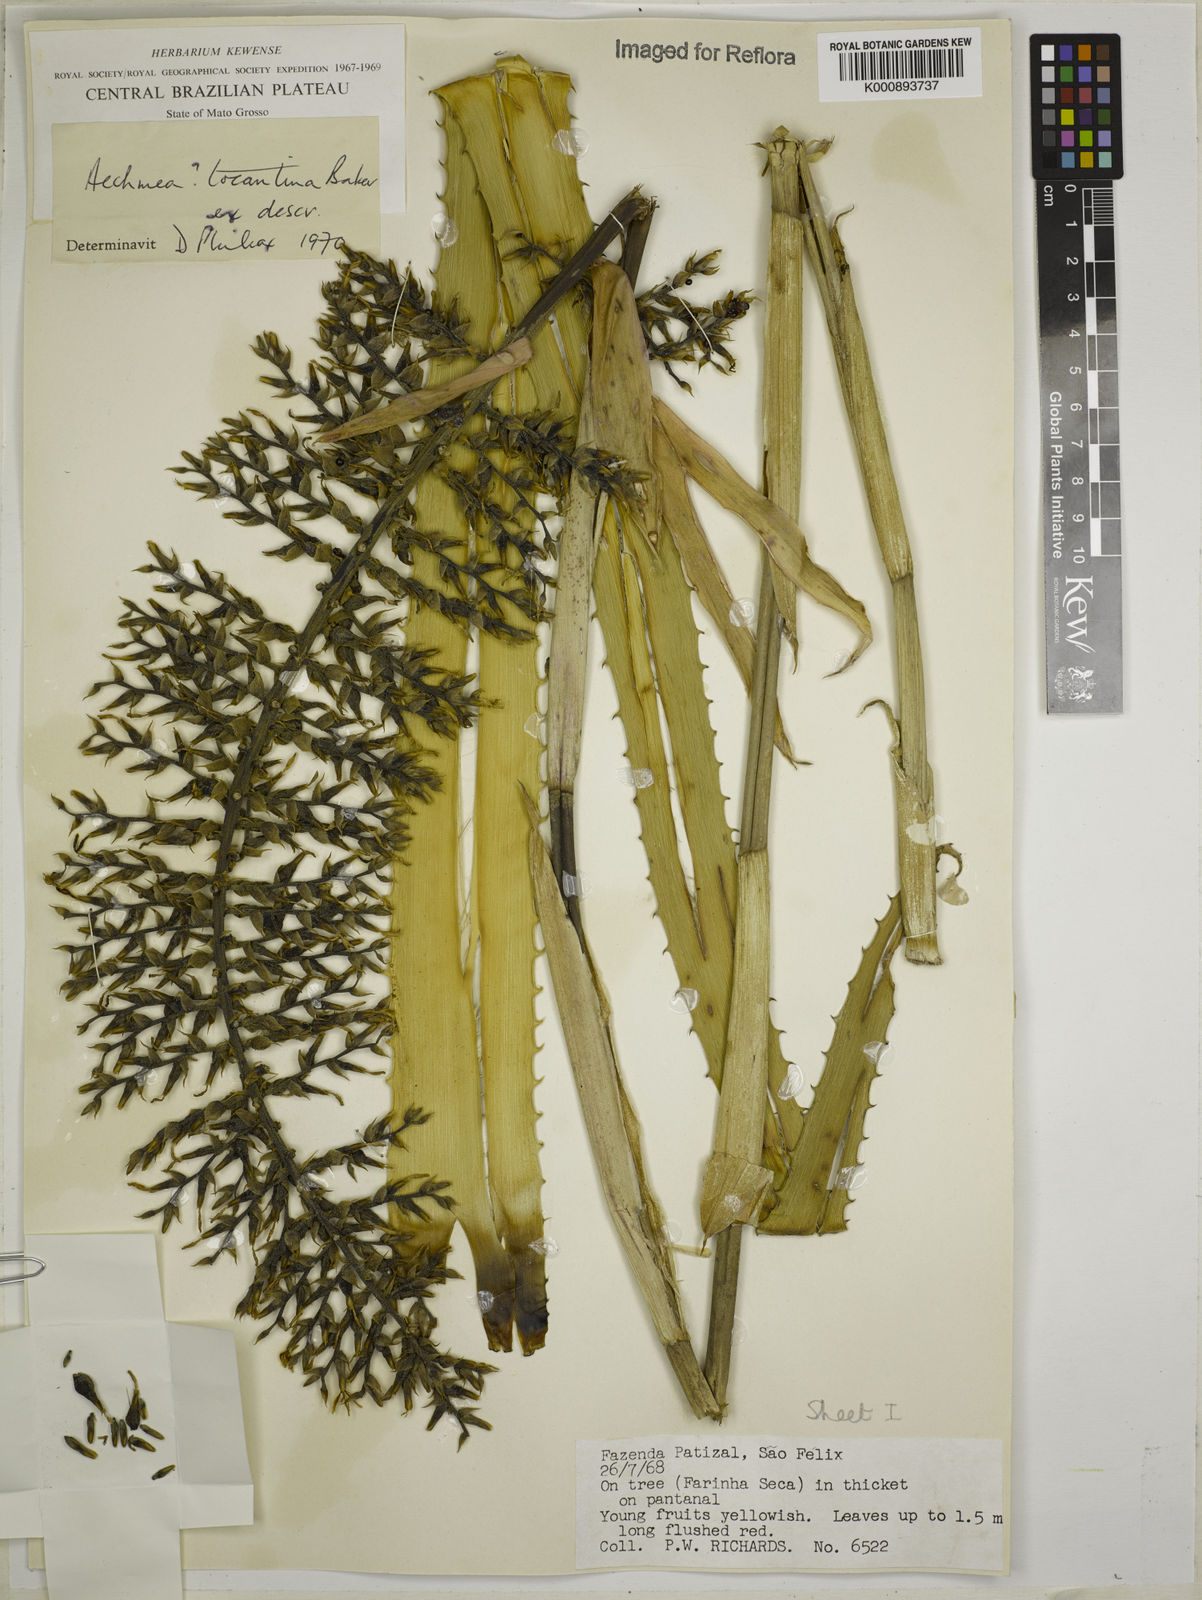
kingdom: Plantae
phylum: Tracheophyta
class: Liliopsida
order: Poales
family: Bromeliaceae
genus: Aechmea
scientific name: Aechmea tocantina
